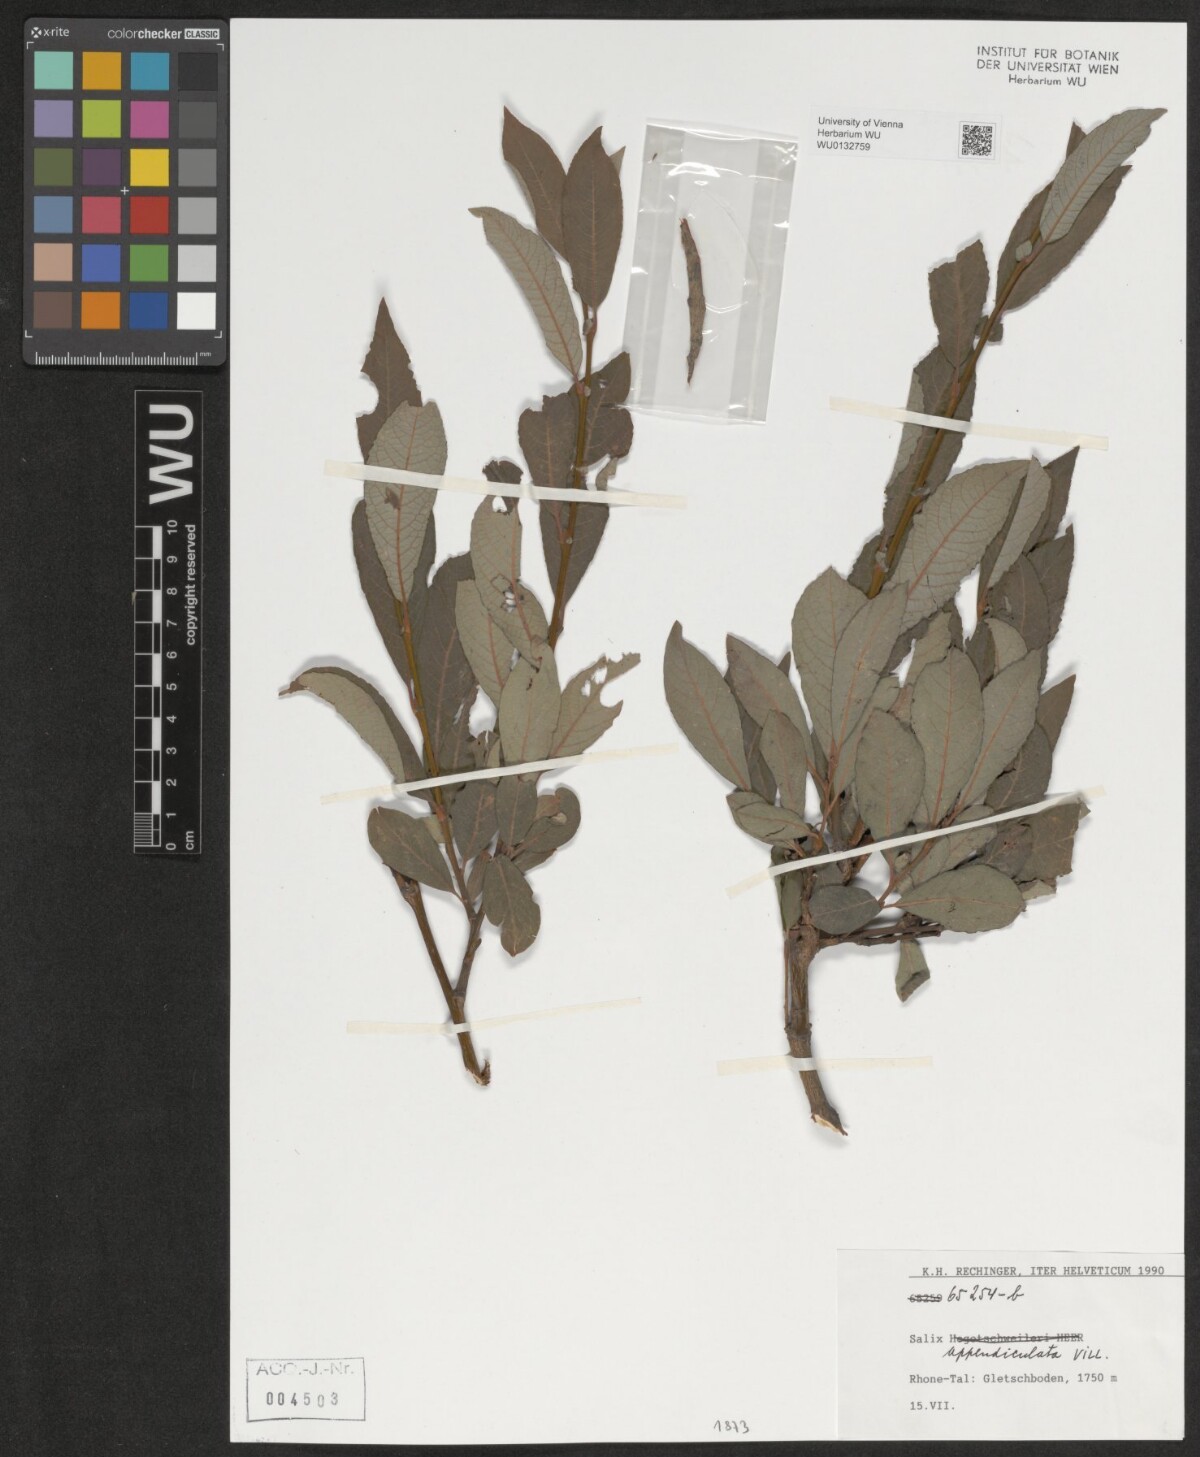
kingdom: Plantae
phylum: Tracheophyta
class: Magnoliopsida
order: Malpighiales
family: Salicaceae
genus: Salix
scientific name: Salix appendiculata
